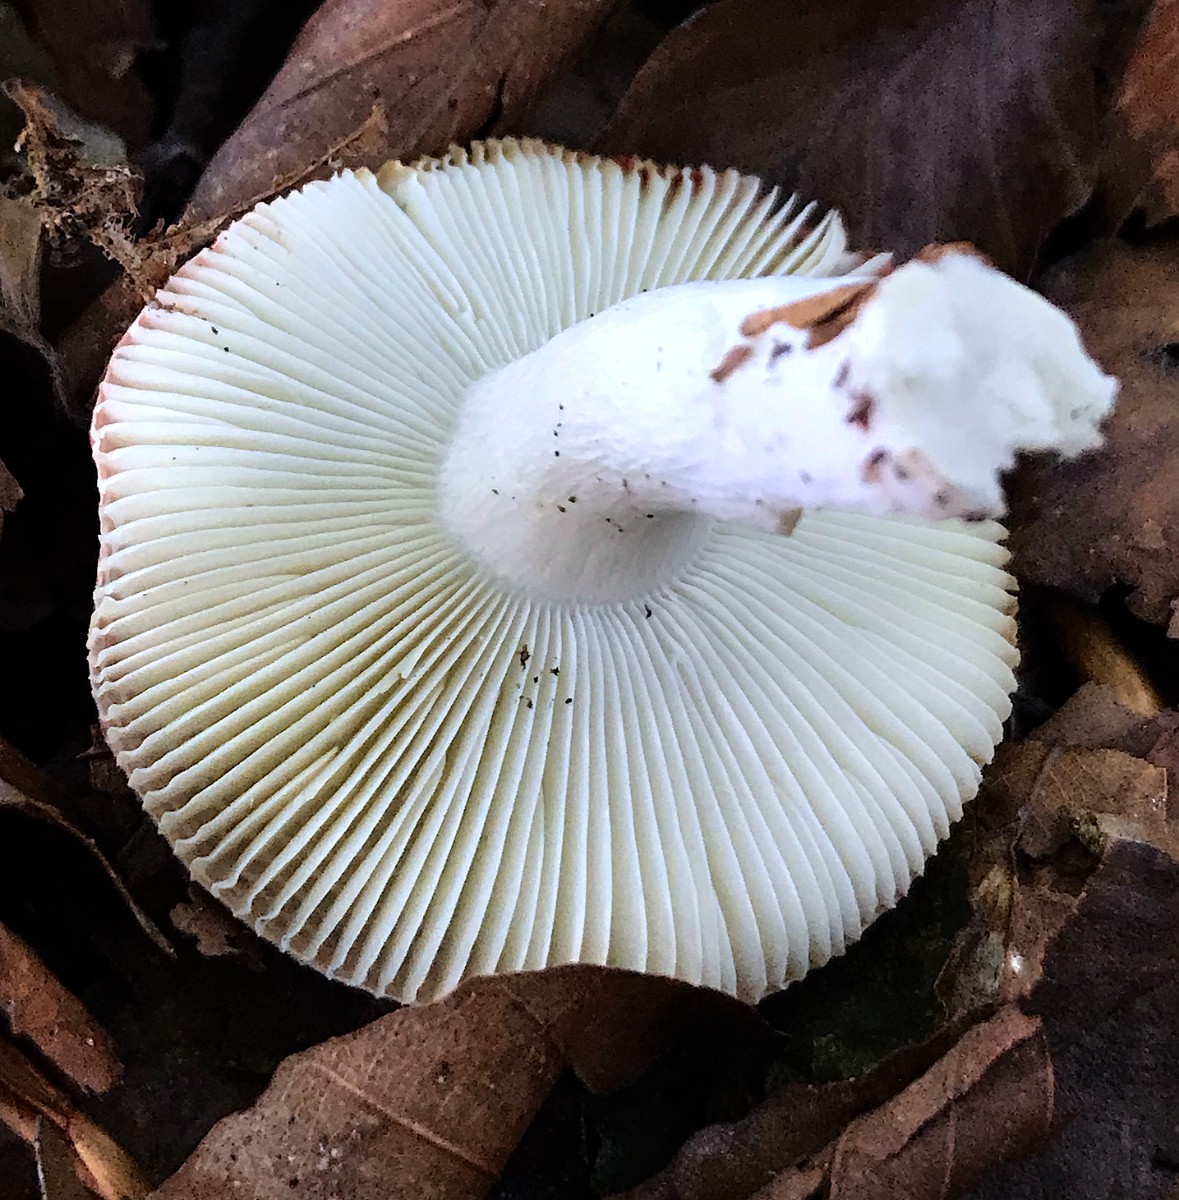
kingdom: Fungi
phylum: Basidiomycota
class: Agaricomycetes
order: Russulales
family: Russulaceae
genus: Russula
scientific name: Russula nobilis
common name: lille gift-skørhat
